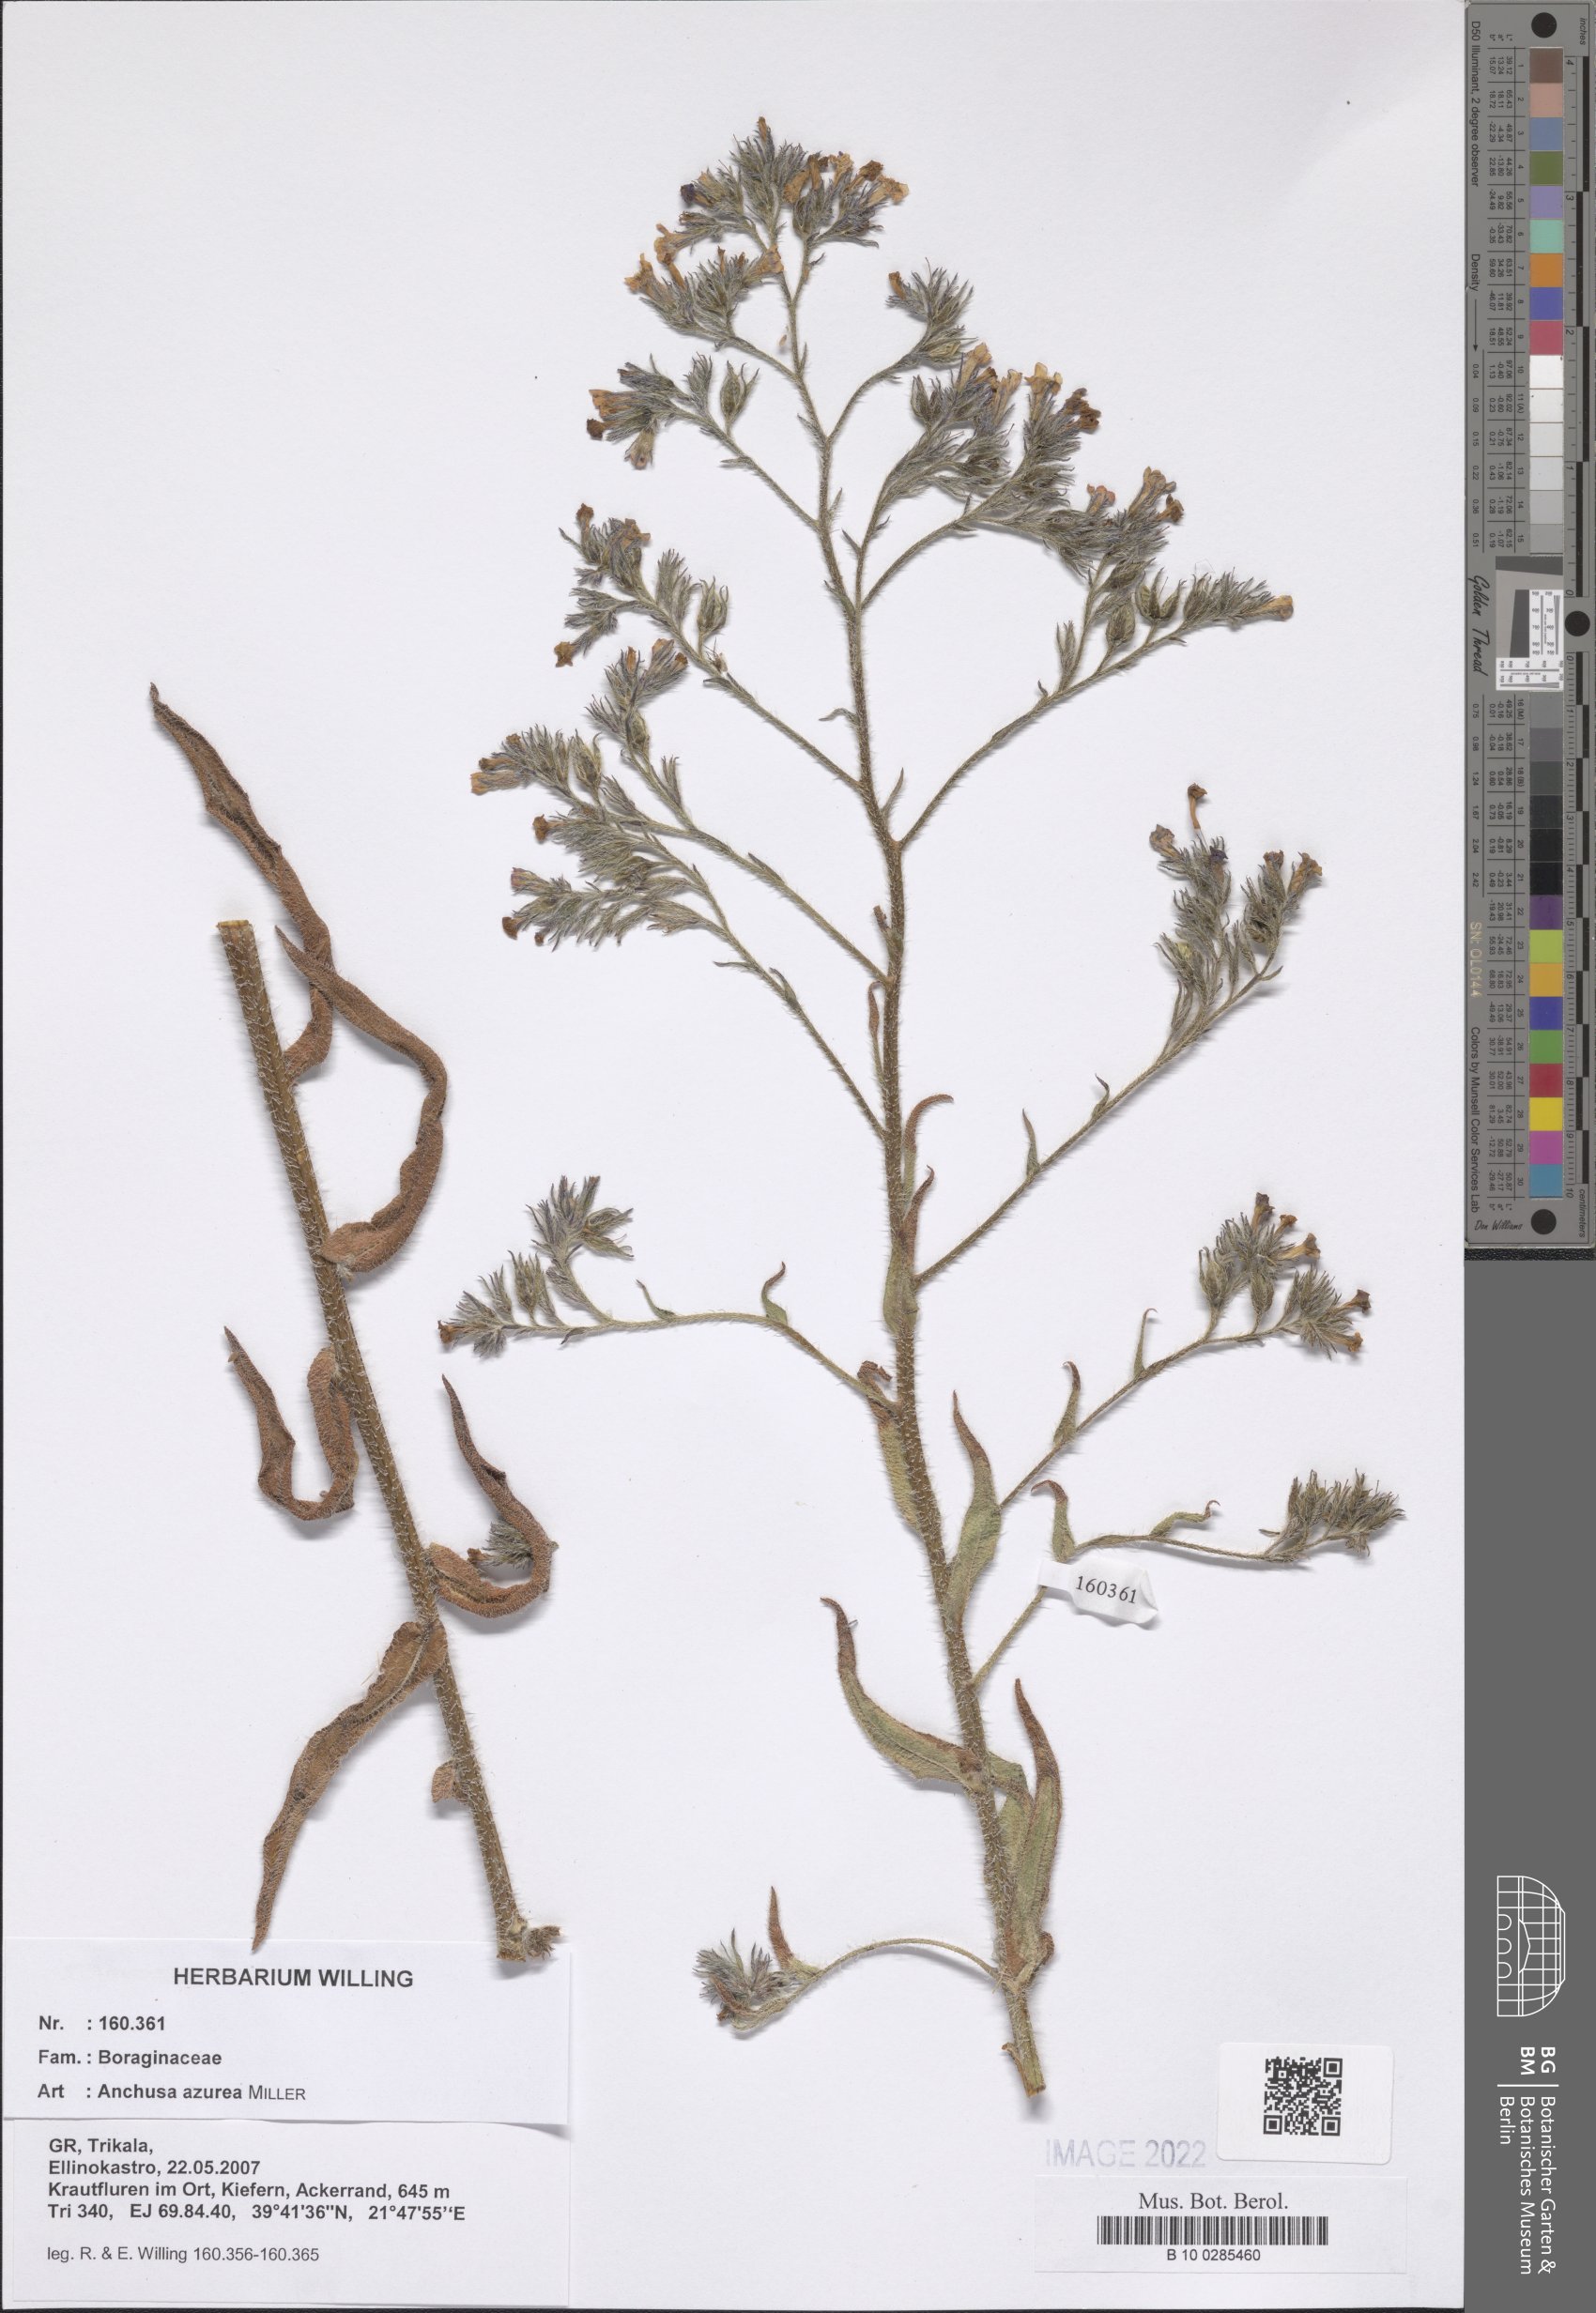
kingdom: Plantae
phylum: Tracheophyta
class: Magnoliopsida
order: Boraginales
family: Boraginaceae
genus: Anchusa
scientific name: Anchusa azurea
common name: Garden anchusa
